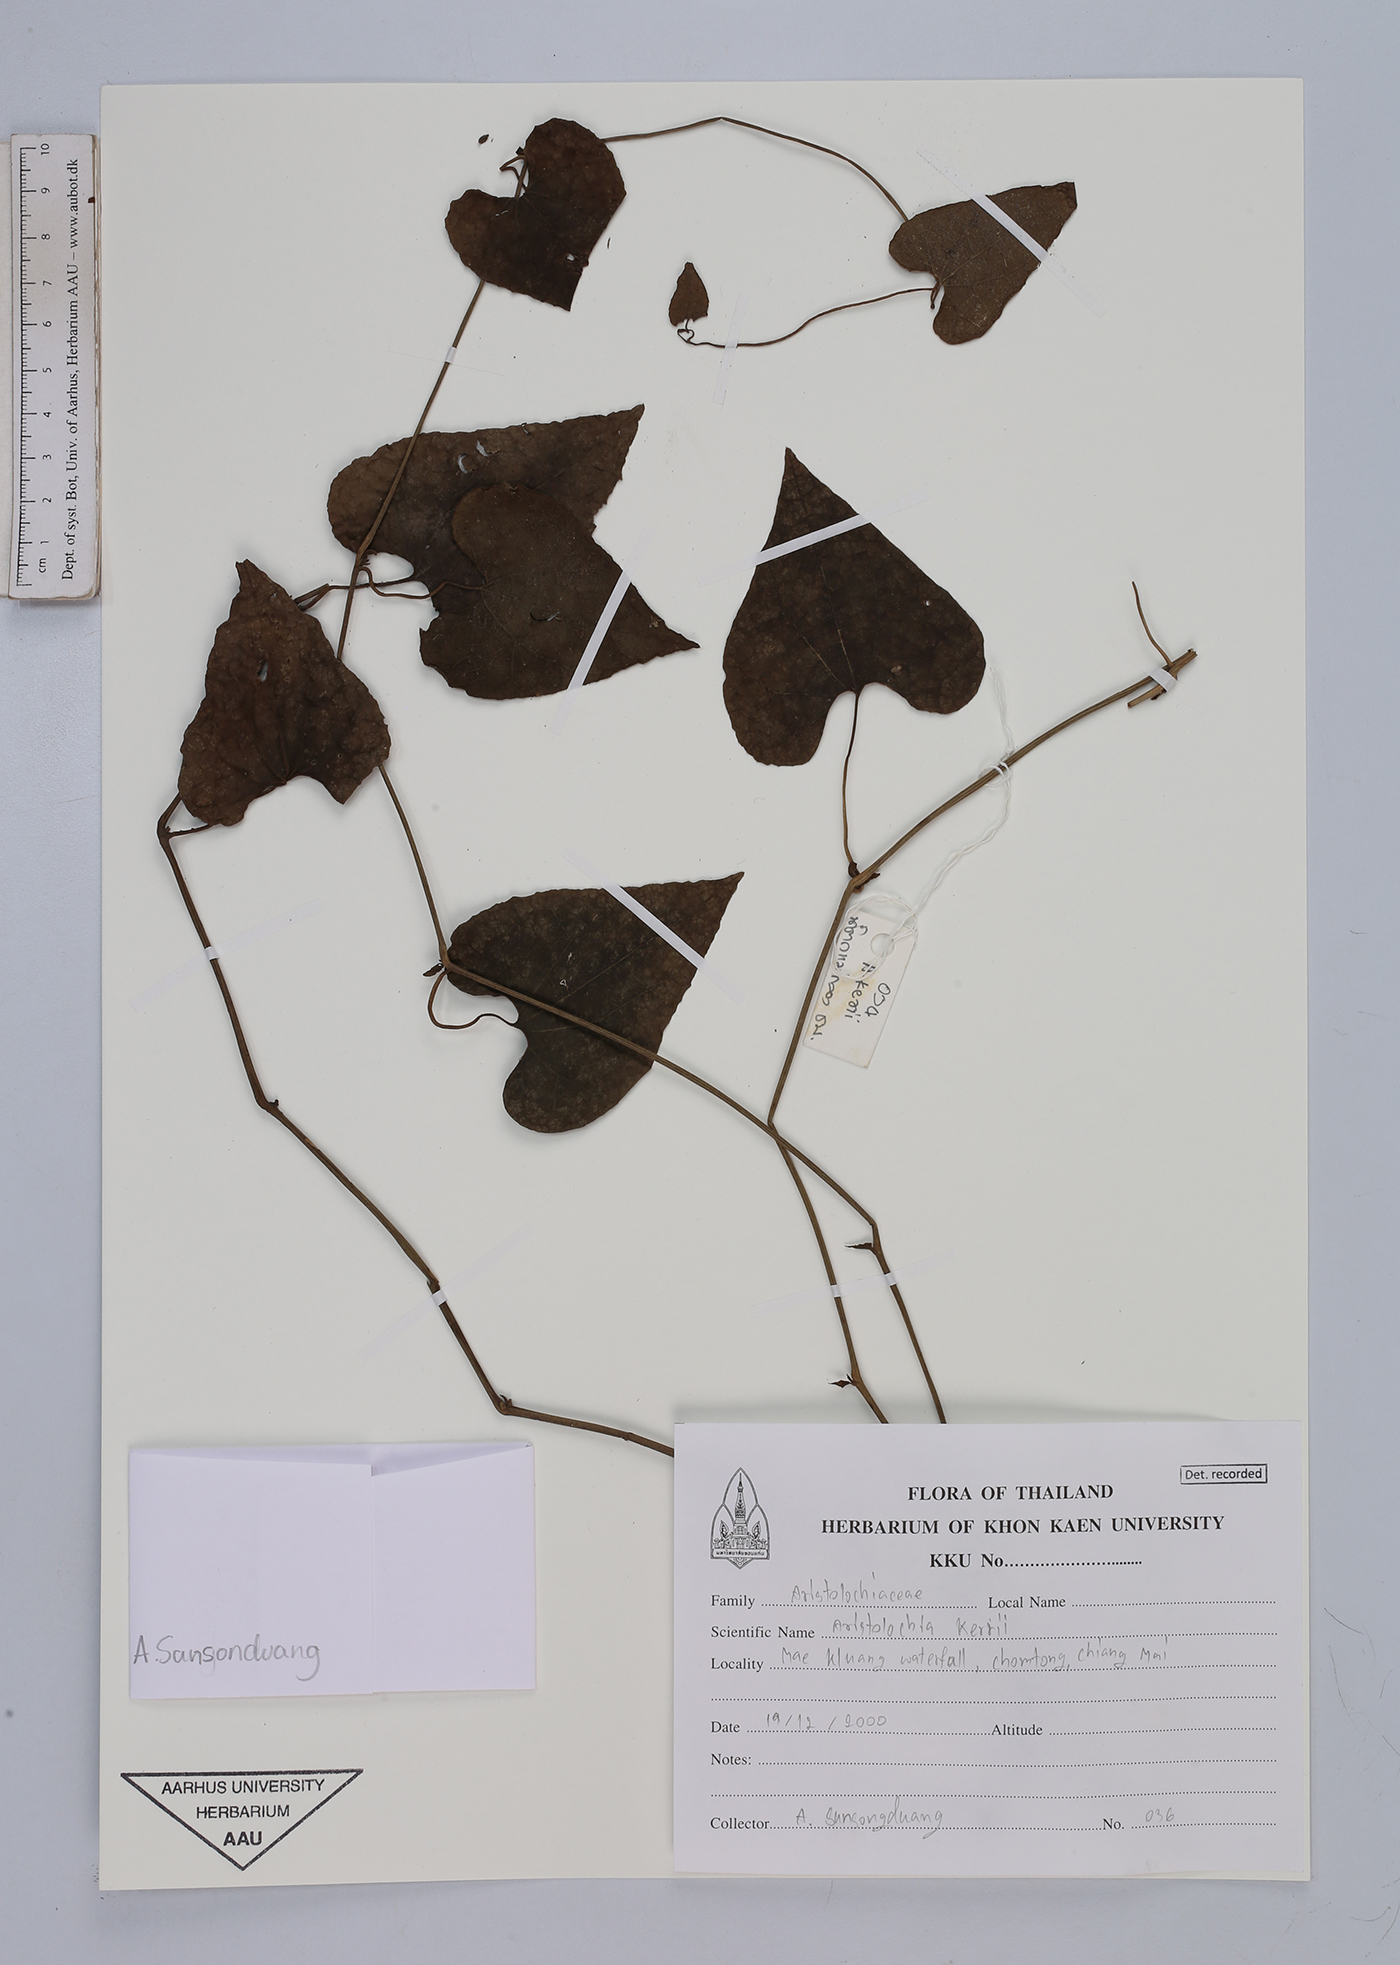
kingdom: Plantae
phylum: Tracheophyta
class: Magnoliopsida
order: Piperales
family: Aristolochiaceae
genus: Aristolochia
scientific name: Aristolochia cambodiana
